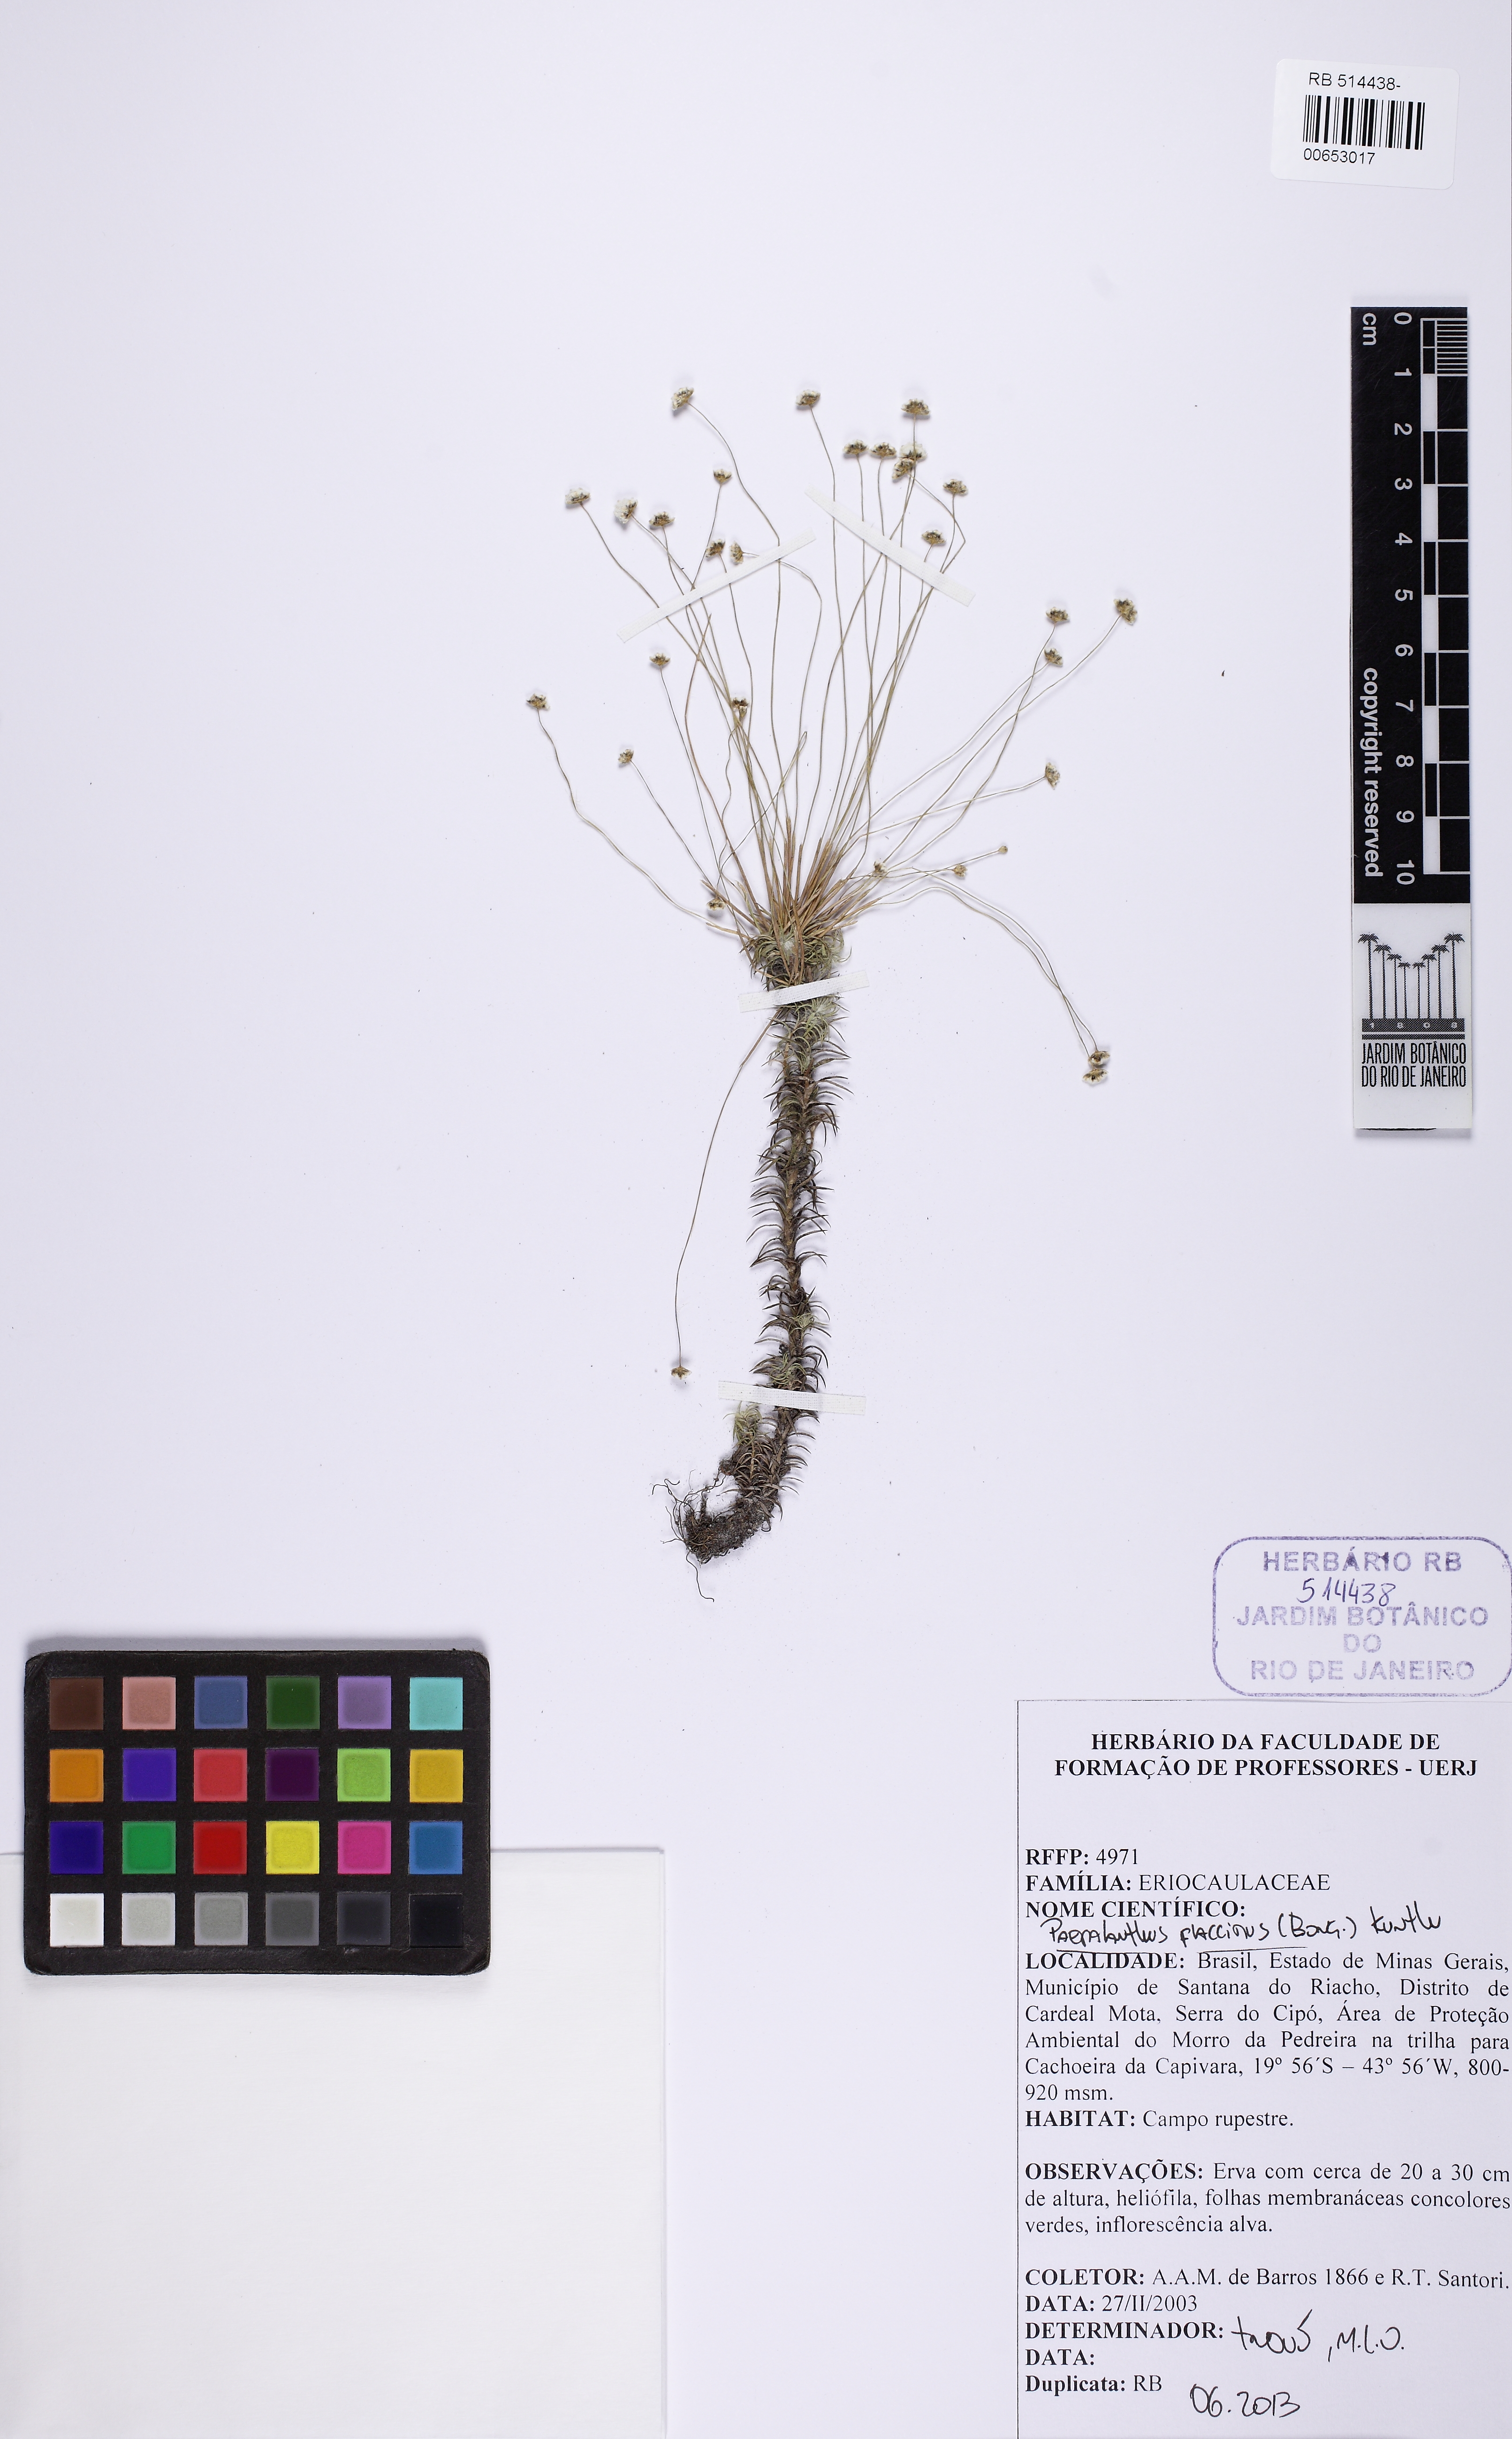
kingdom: Plantae
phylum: Tracheophyta
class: Liliopsida
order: Poales
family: Eriocaulaceae
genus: Paepalanthus
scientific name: Paepalanthus flaccidus
